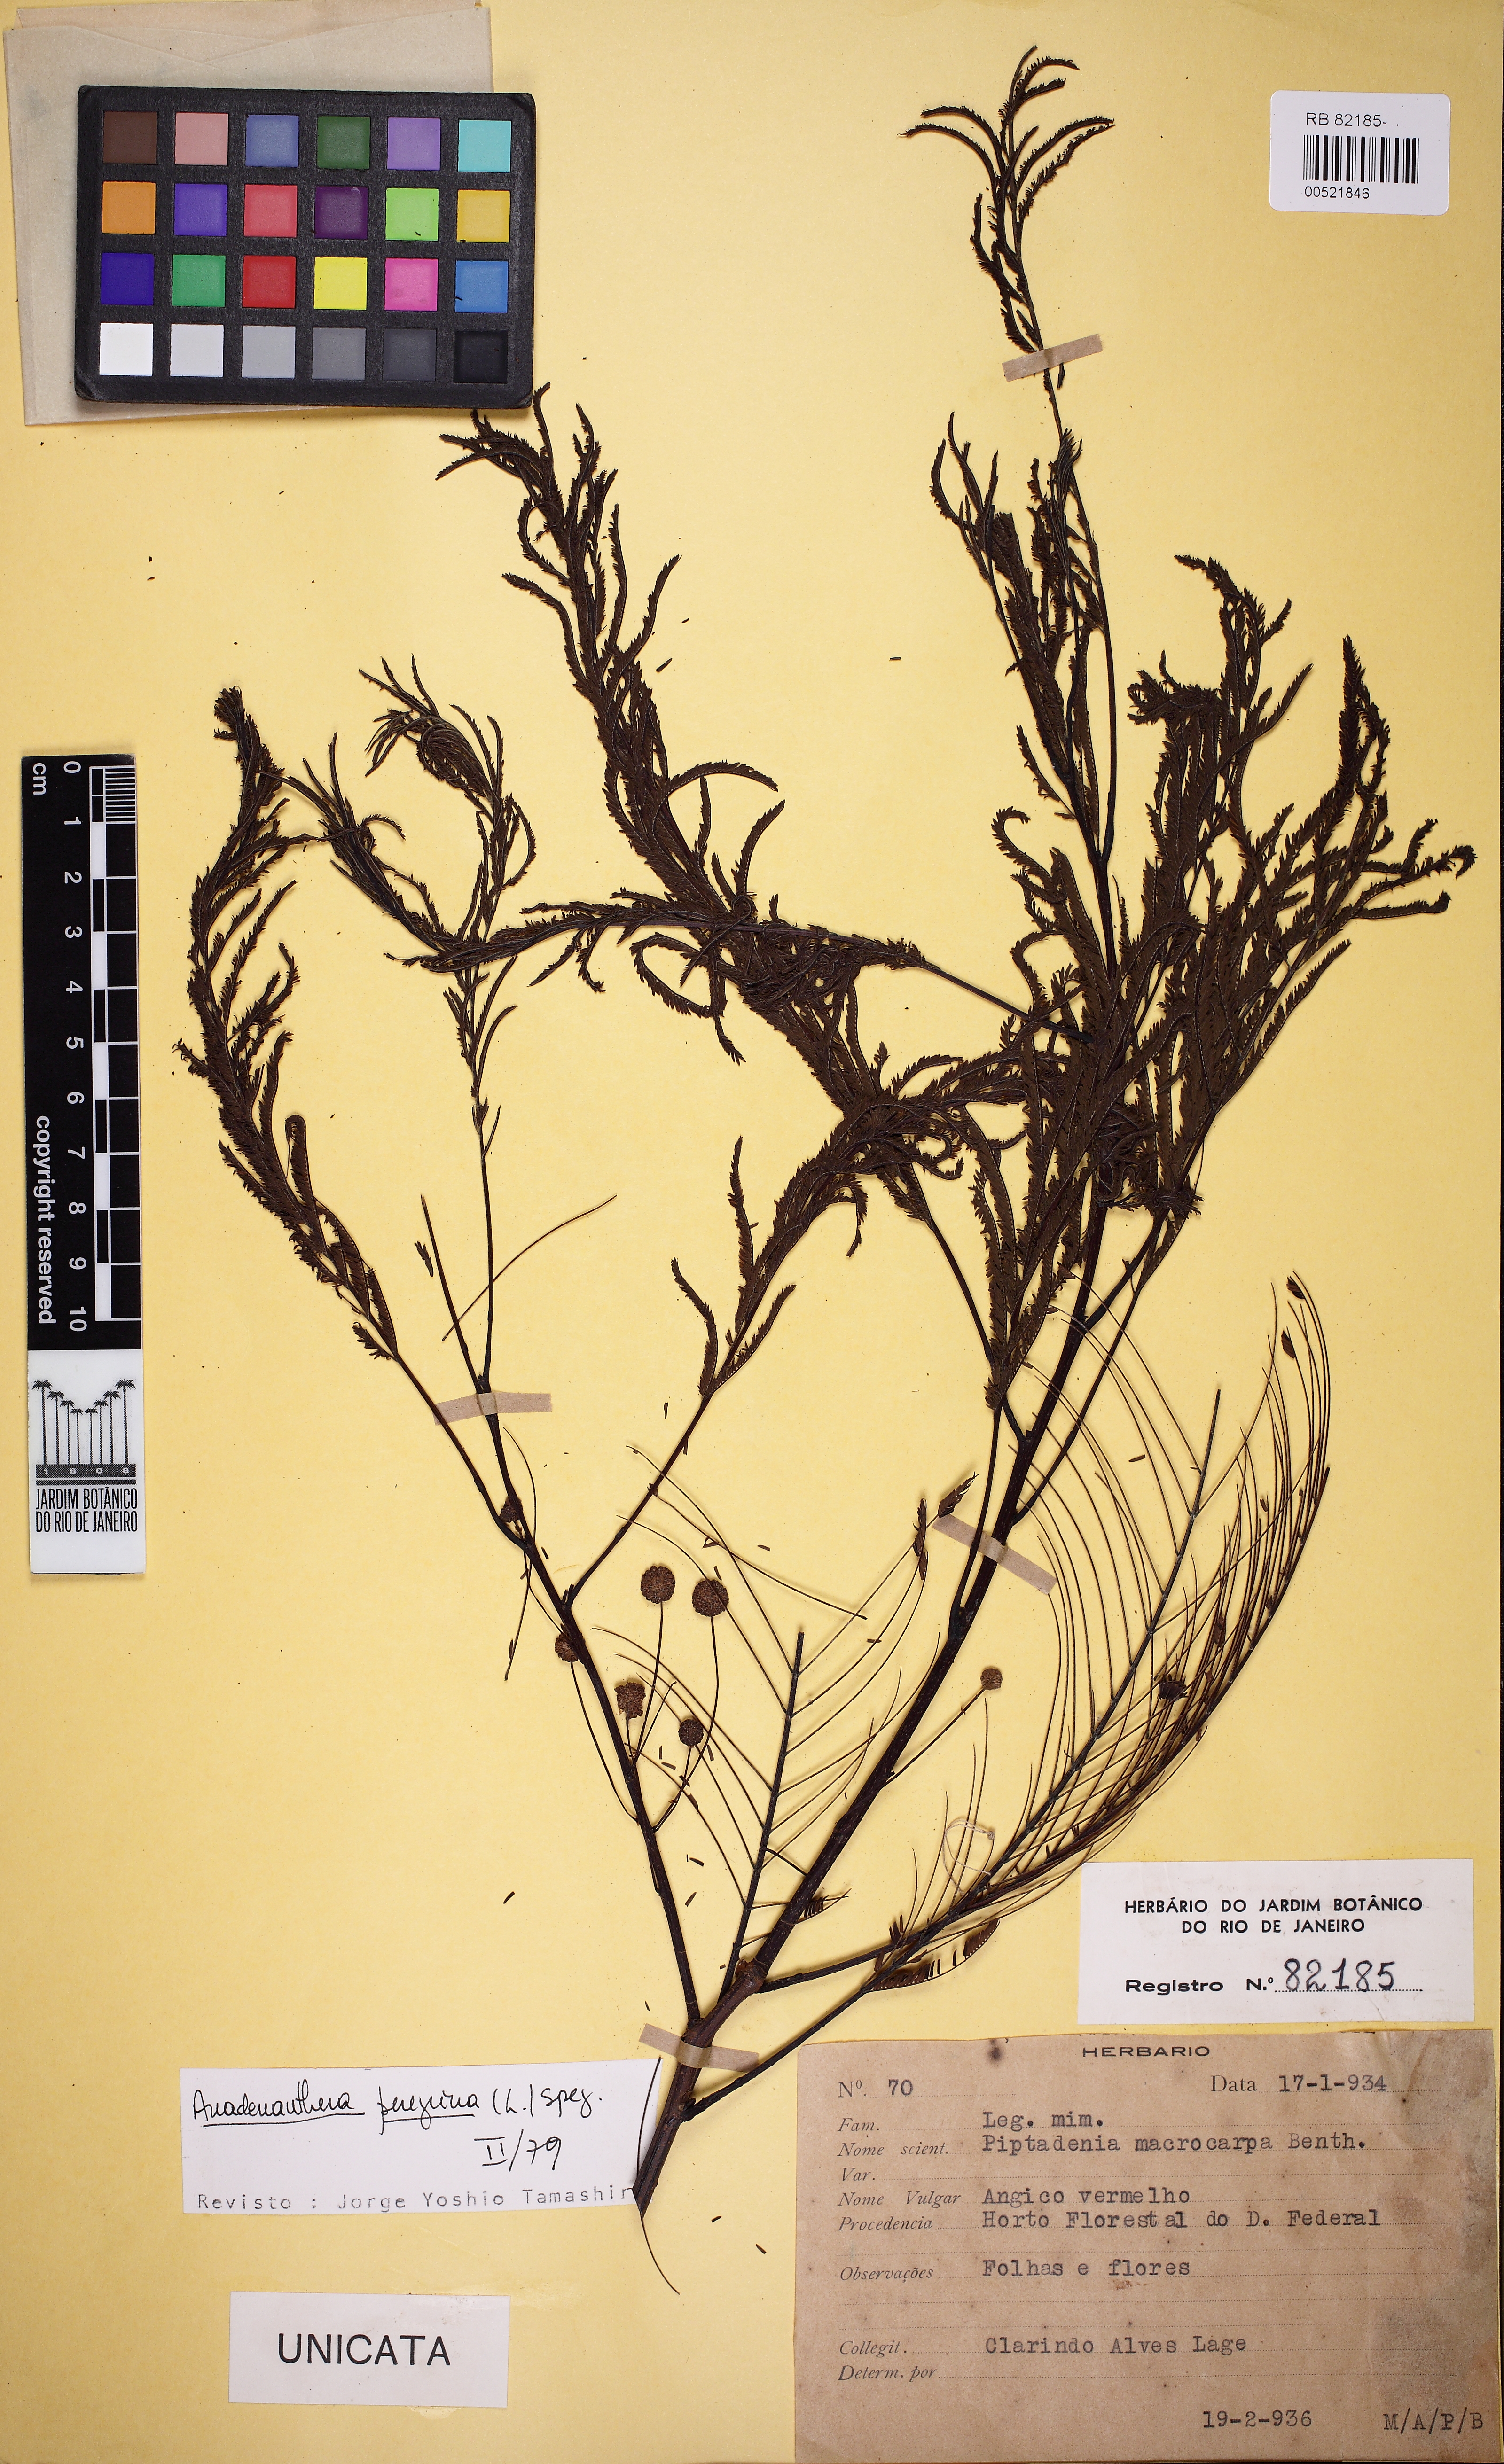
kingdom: Plantae
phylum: Tracheophyta
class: Magnoliopsida
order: Fabales
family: Fabaceae
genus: Anadenanthera
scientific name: Anadenanthera peregrina
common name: Cohoba
